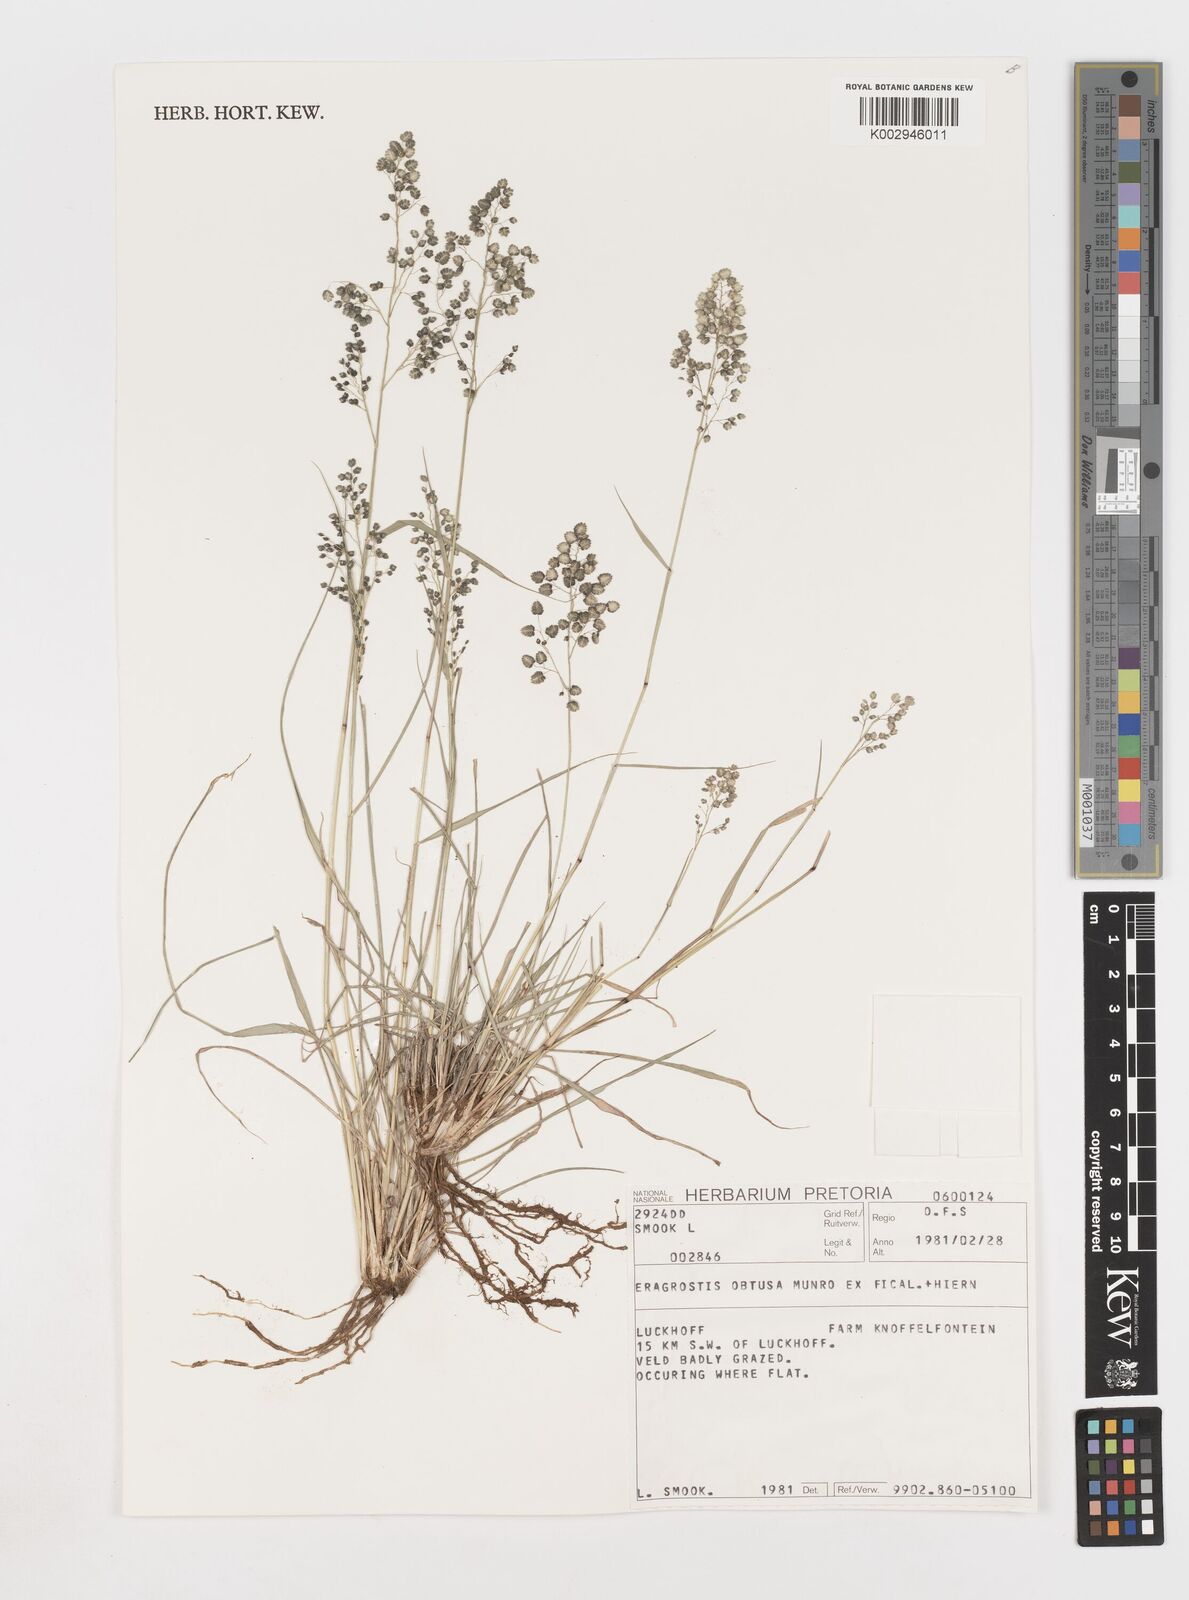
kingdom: Plantae
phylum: Tracheophyta
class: Liliopsida
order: Poales
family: Poaceae
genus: Eragrostis
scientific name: Eragrostis obtusa
